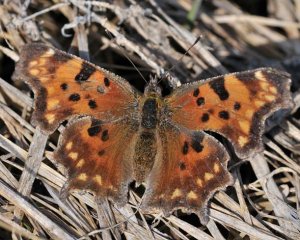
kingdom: Animalia
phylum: Arthropoda
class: Insecta
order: Lepidoptera
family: Nymphalidae
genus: Polygonia
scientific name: Polygonia faunus
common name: Green Comma
